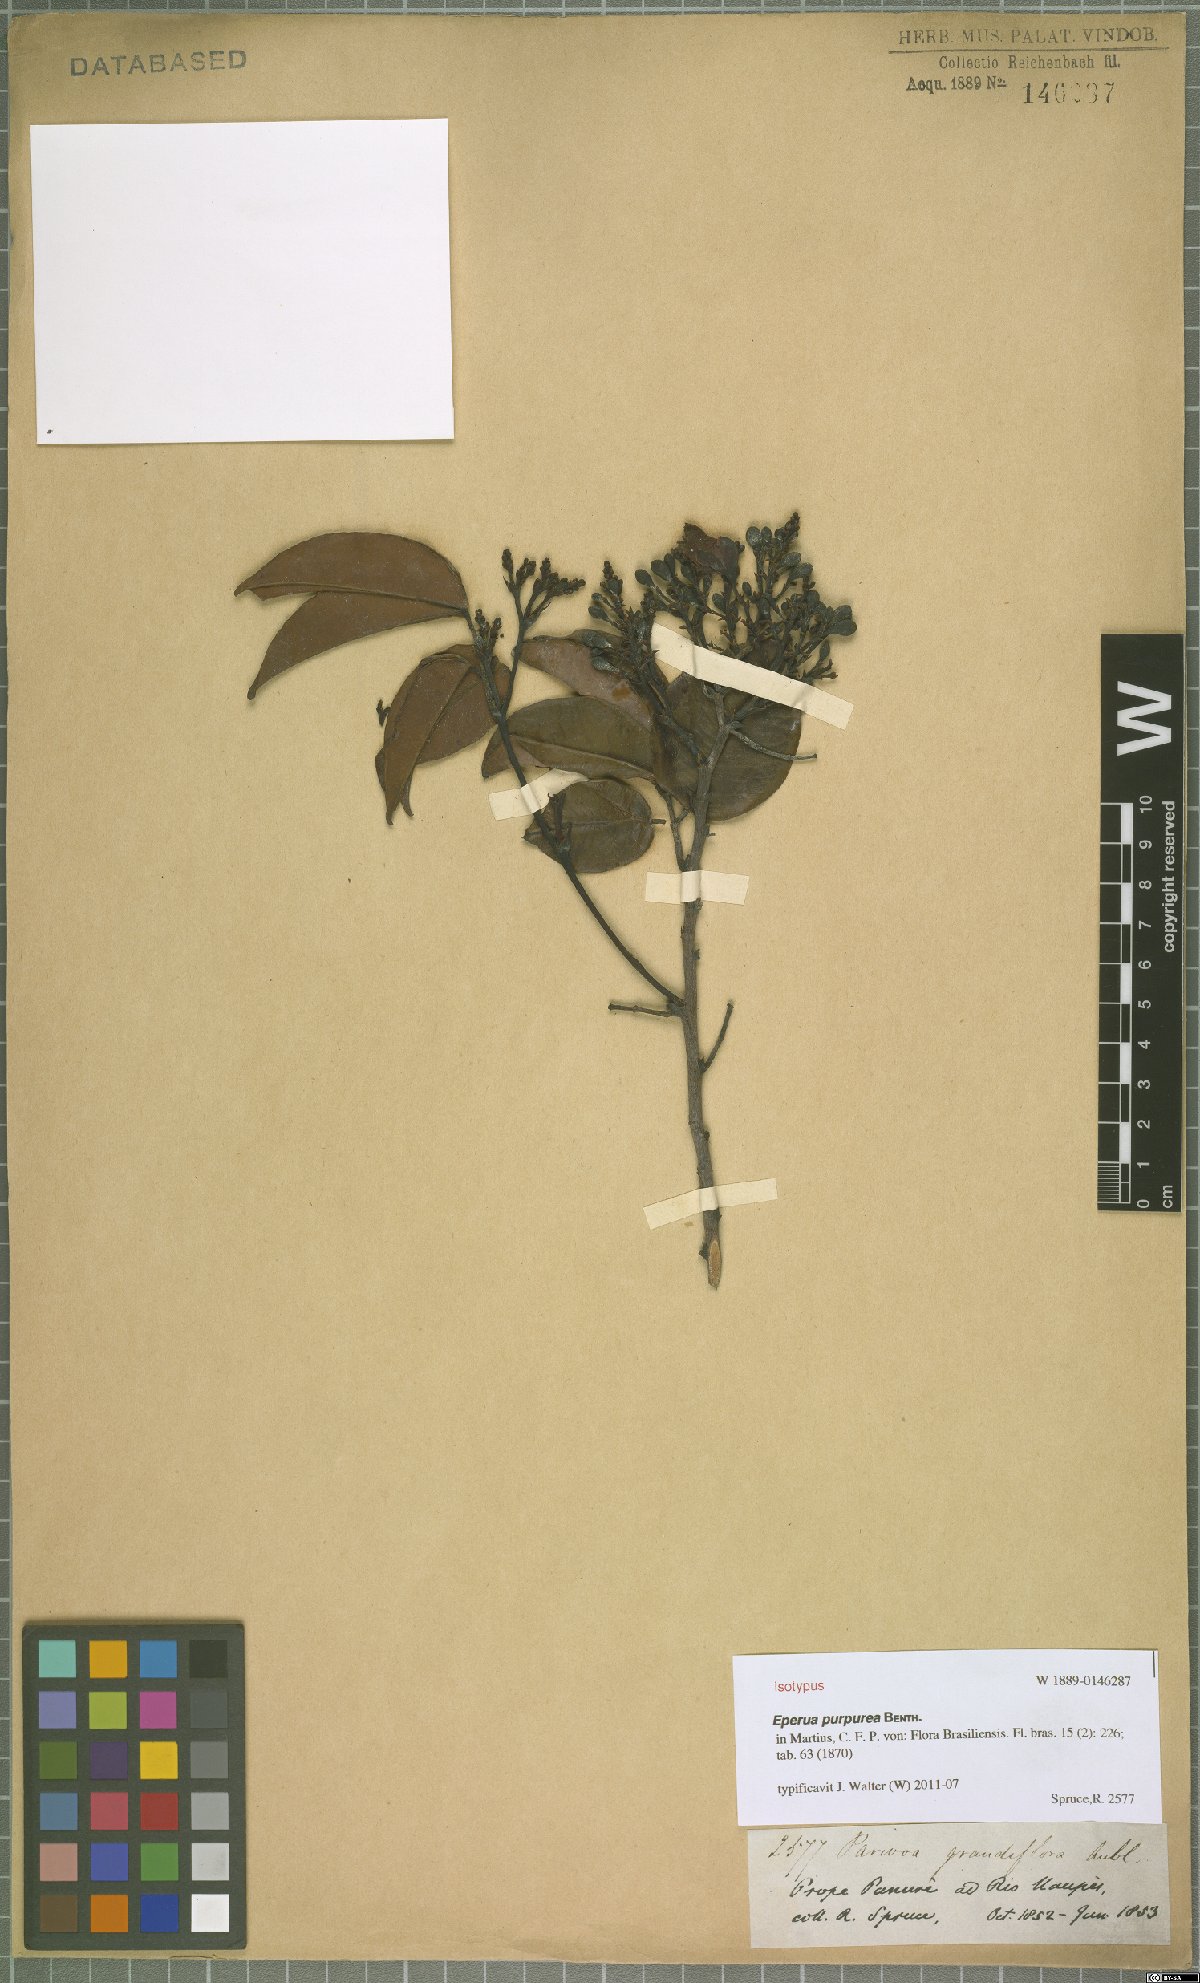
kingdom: Plantae
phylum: Tracheophyta
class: Magnoliopsida
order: Fabales
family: Fabaceae
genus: Eperua
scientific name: Eperua purpurea
